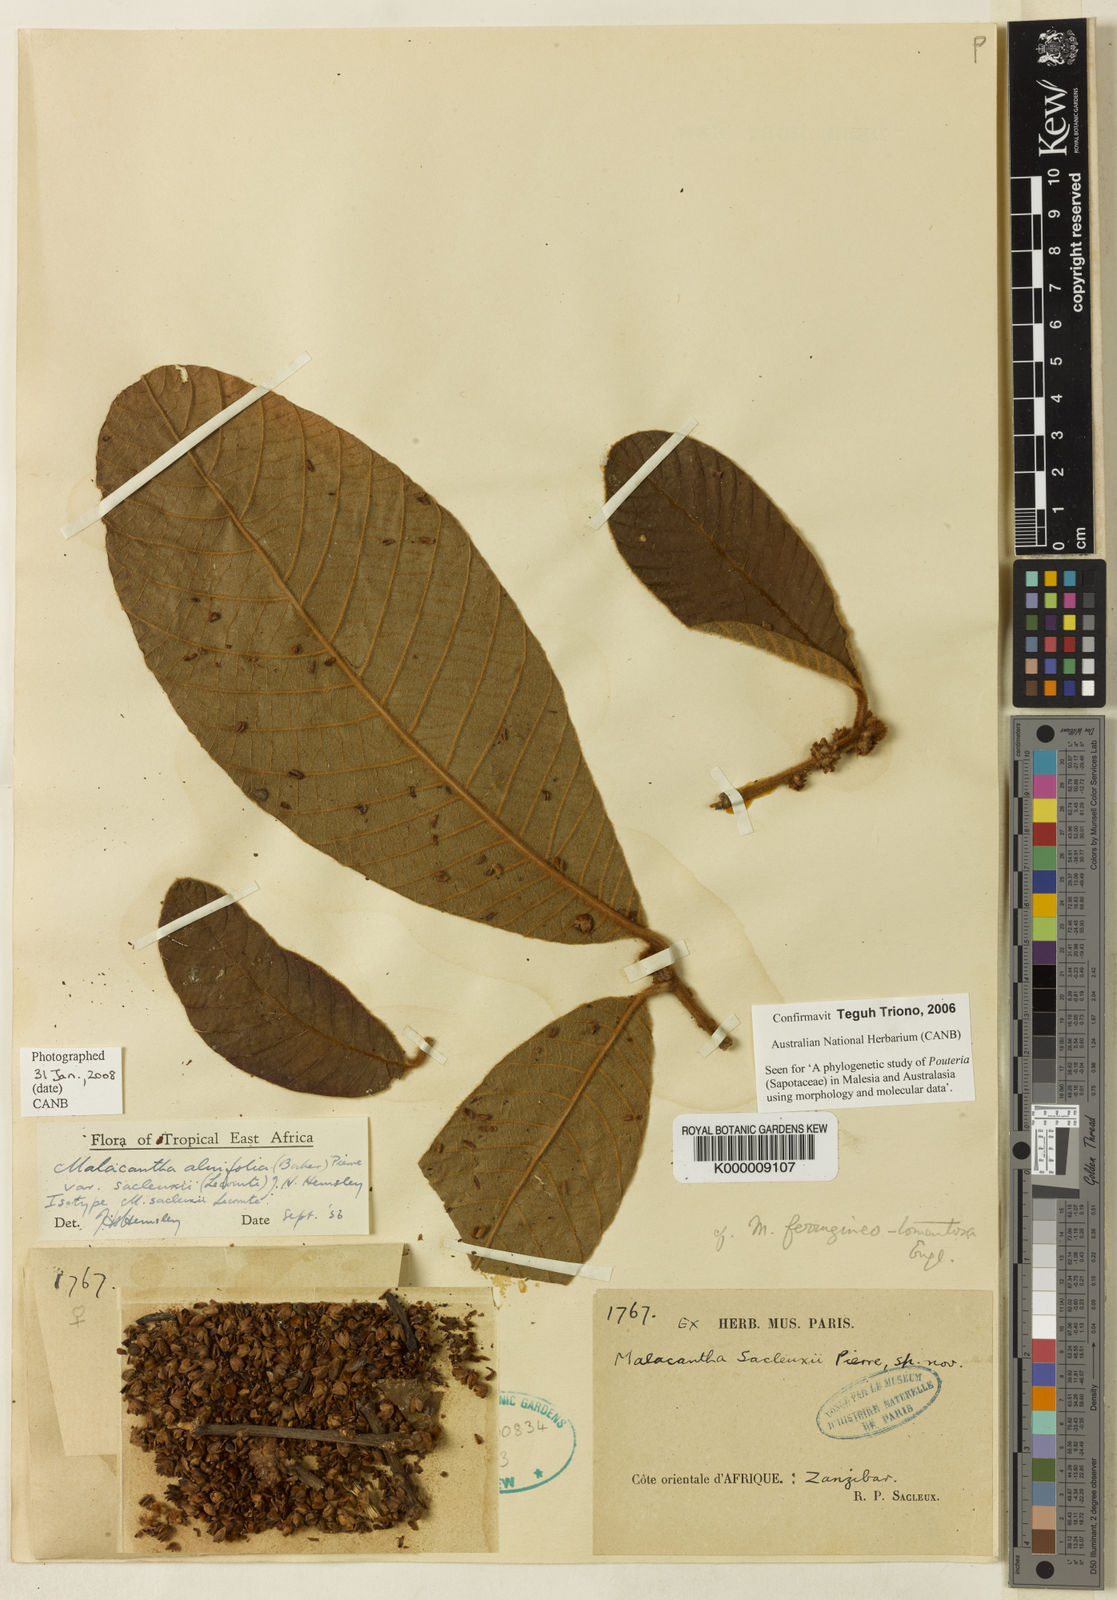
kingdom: Plantae
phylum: Tracheophyta
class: Magnoliopsida
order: Ericales
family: Sapotaceae
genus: Pouteria
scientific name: Pouteria
